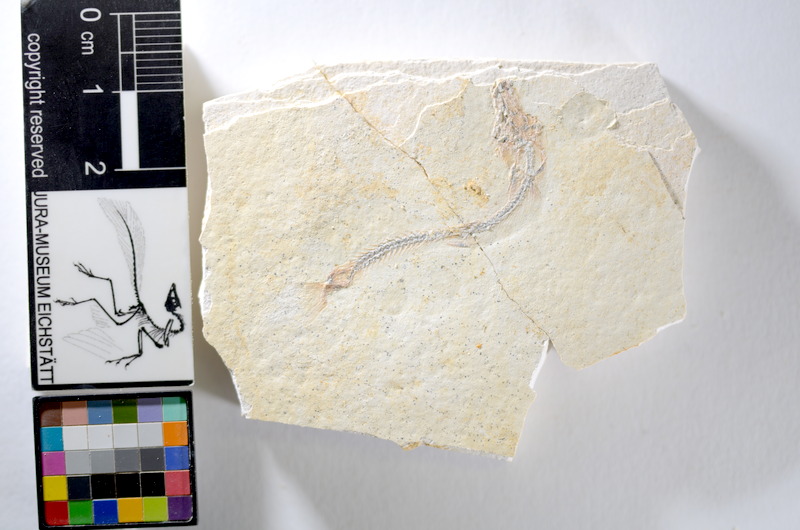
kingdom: Animalia
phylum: Chordata
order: Salmoniformes
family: Orthogonikleithridae
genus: Orthogonikleithrus
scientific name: Orthogonikleithrus hoelli
